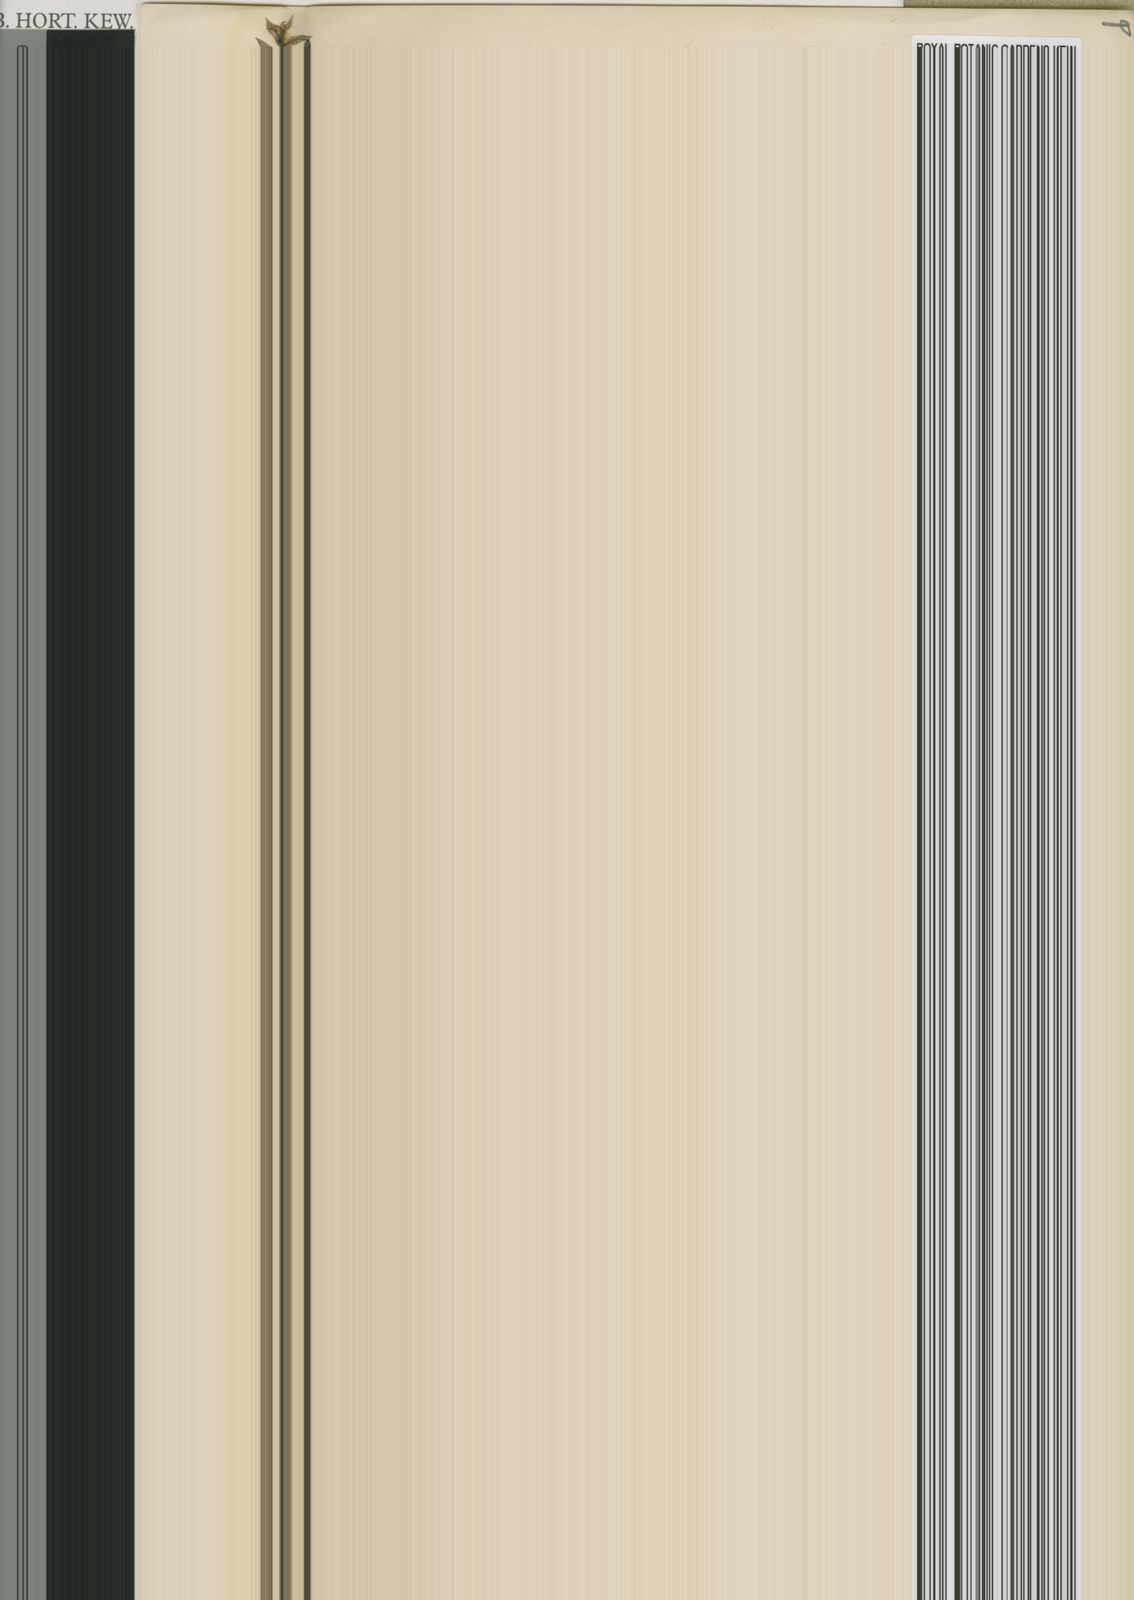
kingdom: Plantae
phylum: Tracheophyta
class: Liliopsida
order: Asparagales
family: Orchidaceae
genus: Eulophia
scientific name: Eulophia parviflora
